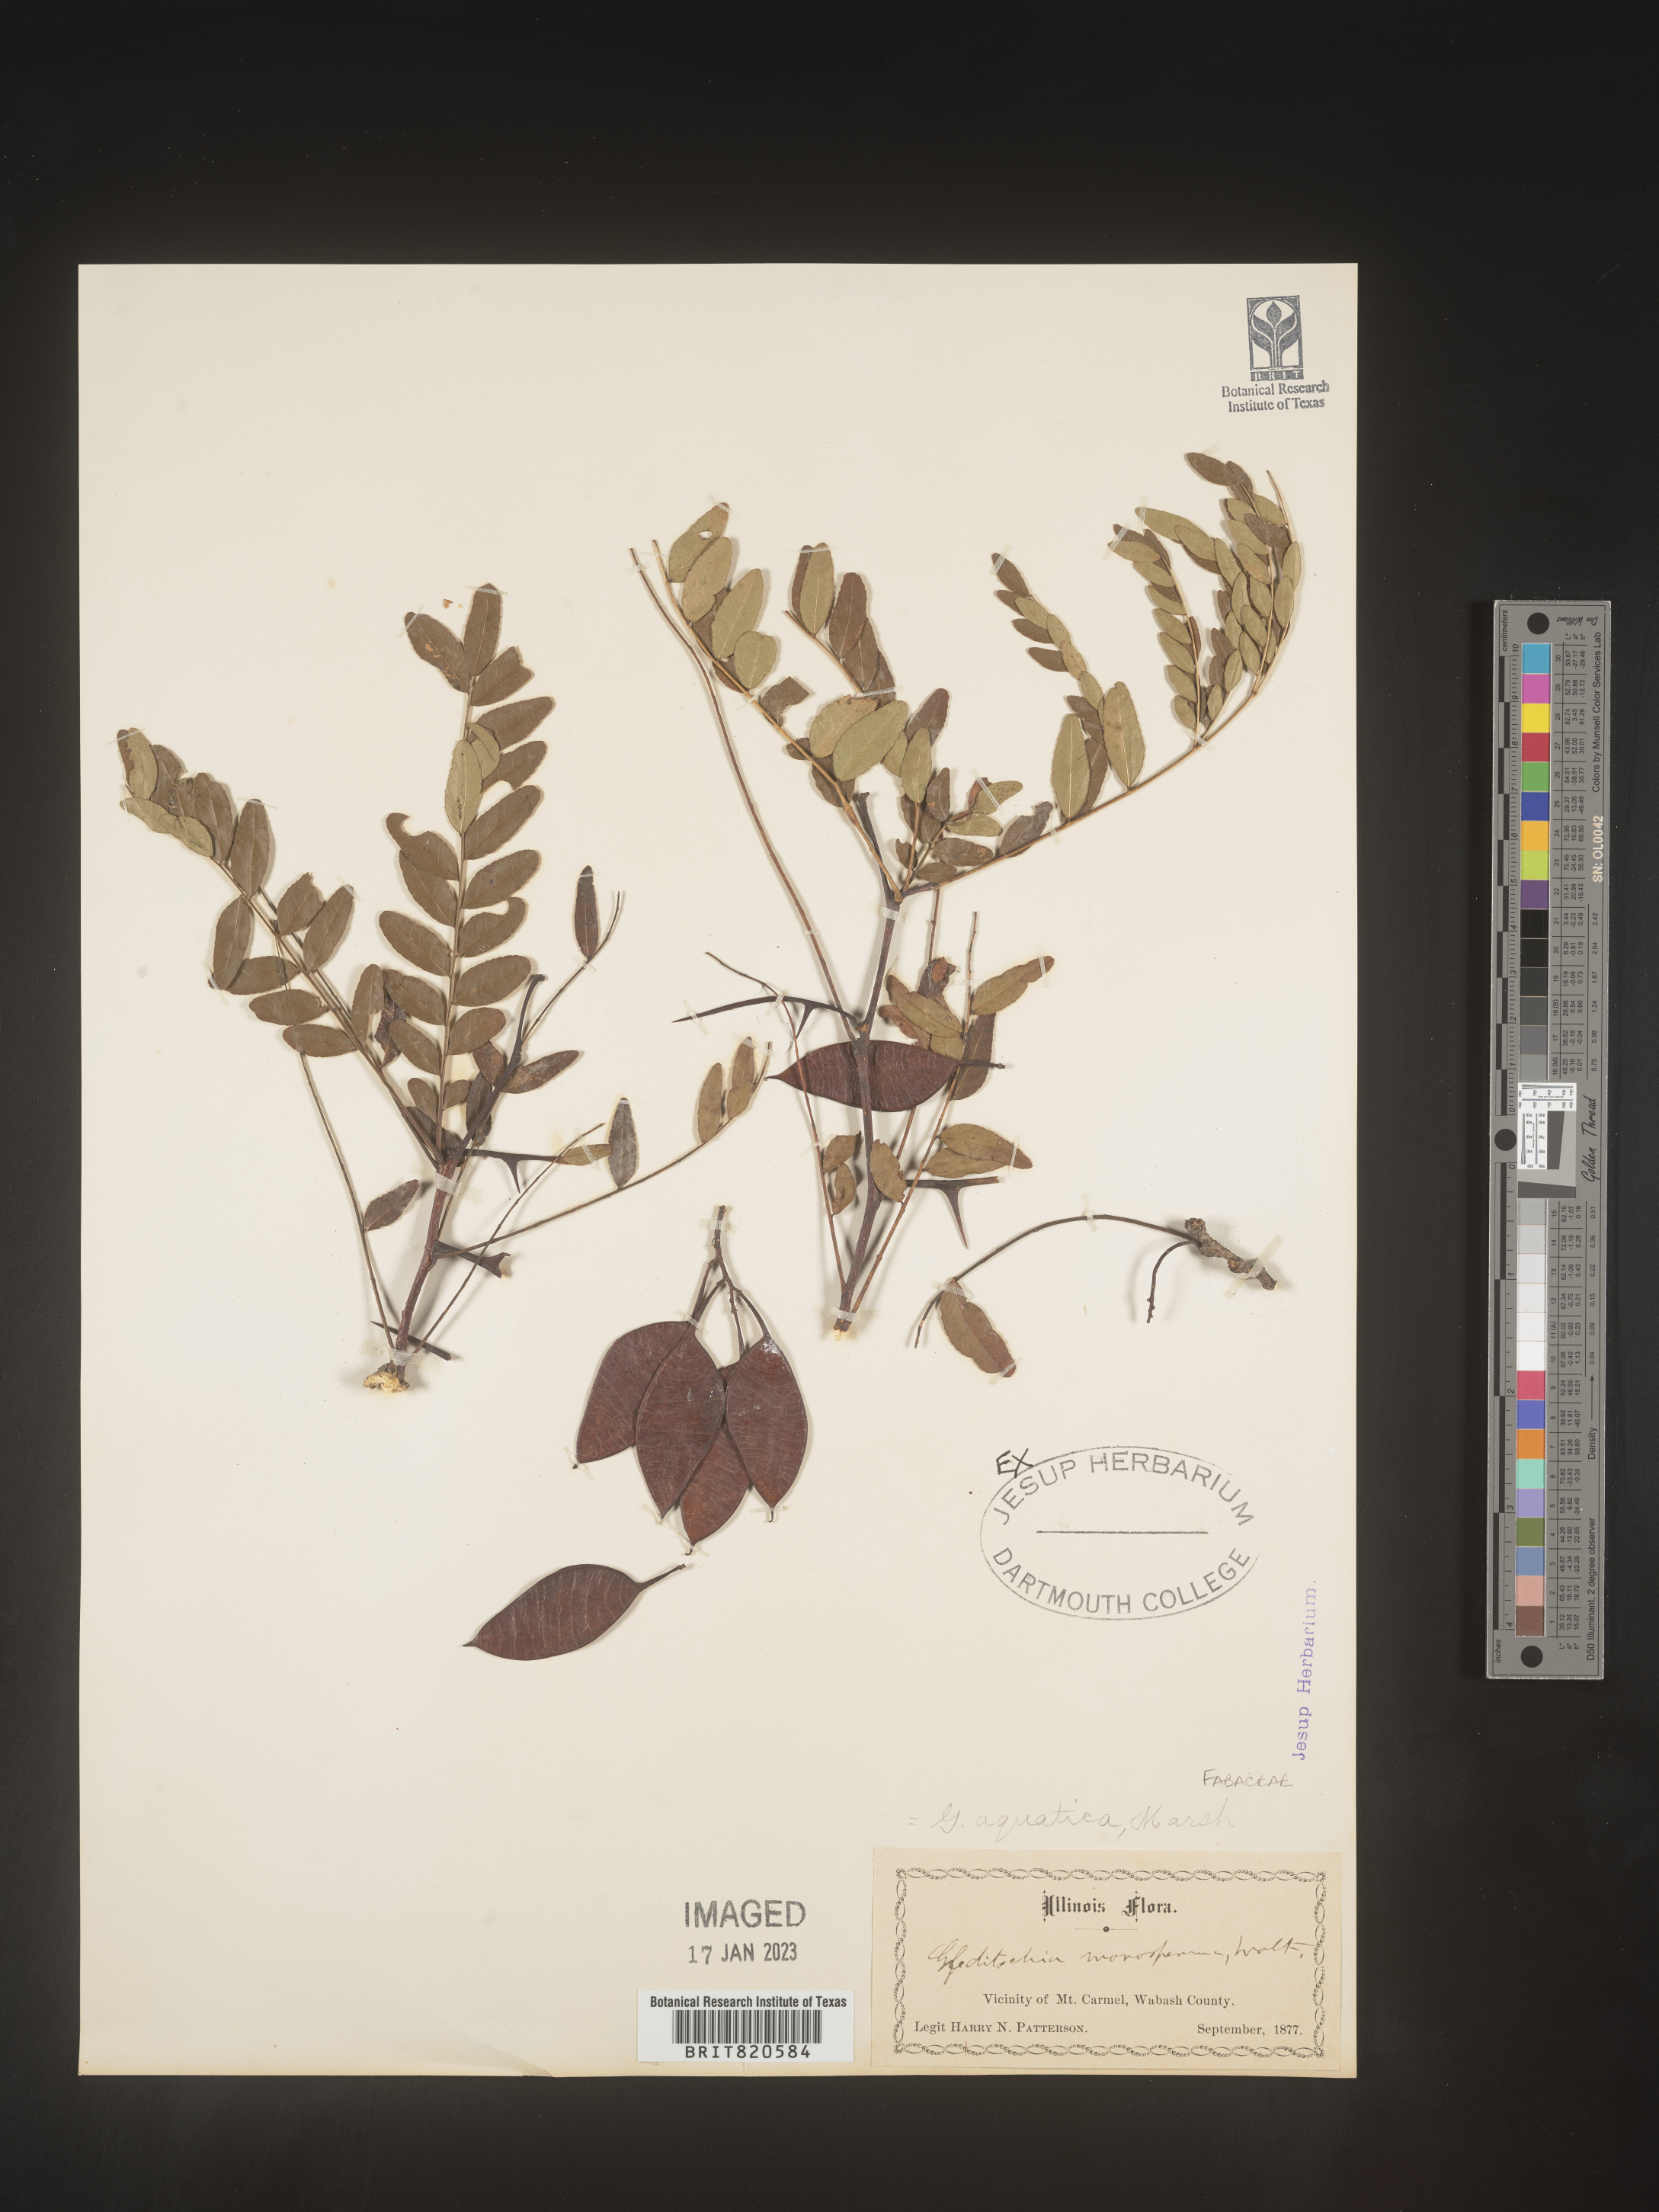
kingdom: Plantae
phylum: Tracheophyta
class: Magnoliopsida
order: Fabales
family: Fabaceae
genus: Gleditsia
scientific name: Gleditsia aquatica
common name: Swamp-locust
